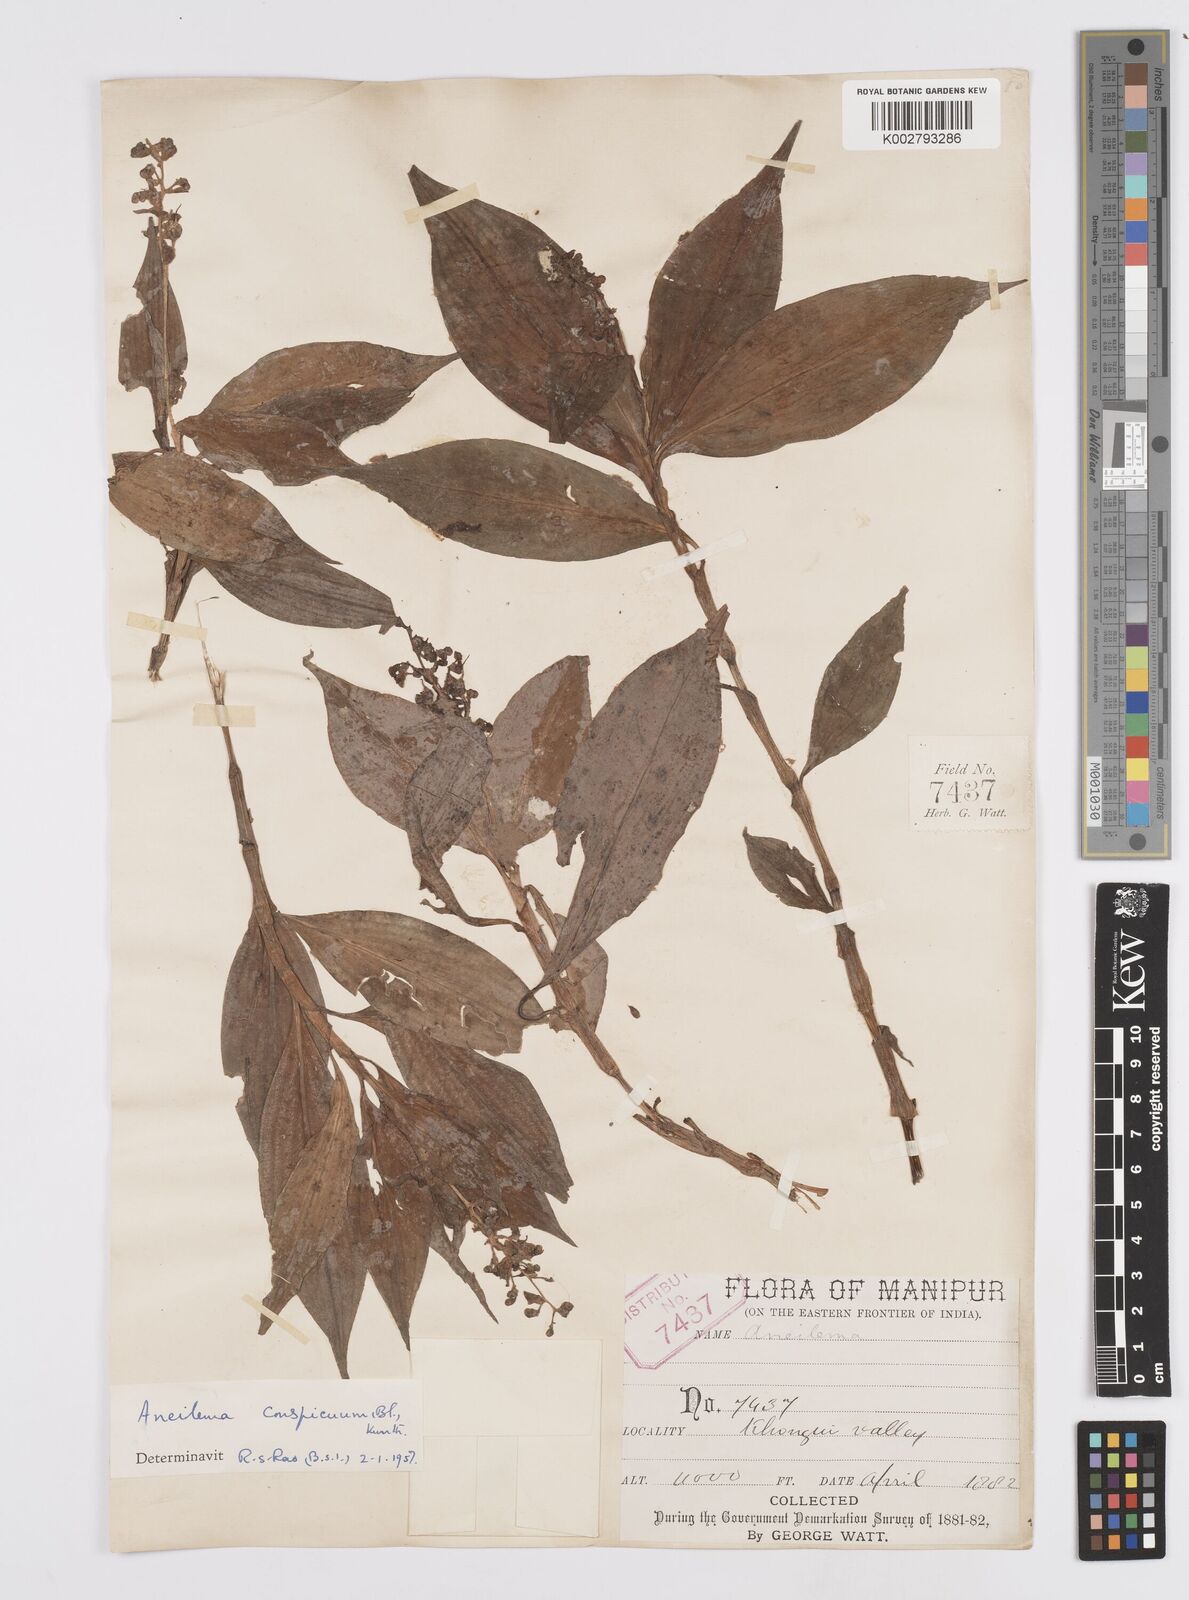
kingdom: Plantae
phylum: Tracheophyta
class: Liliopsida
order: Commelinales
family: Commelinaceae
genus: Murdannia
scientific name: Murdannia
